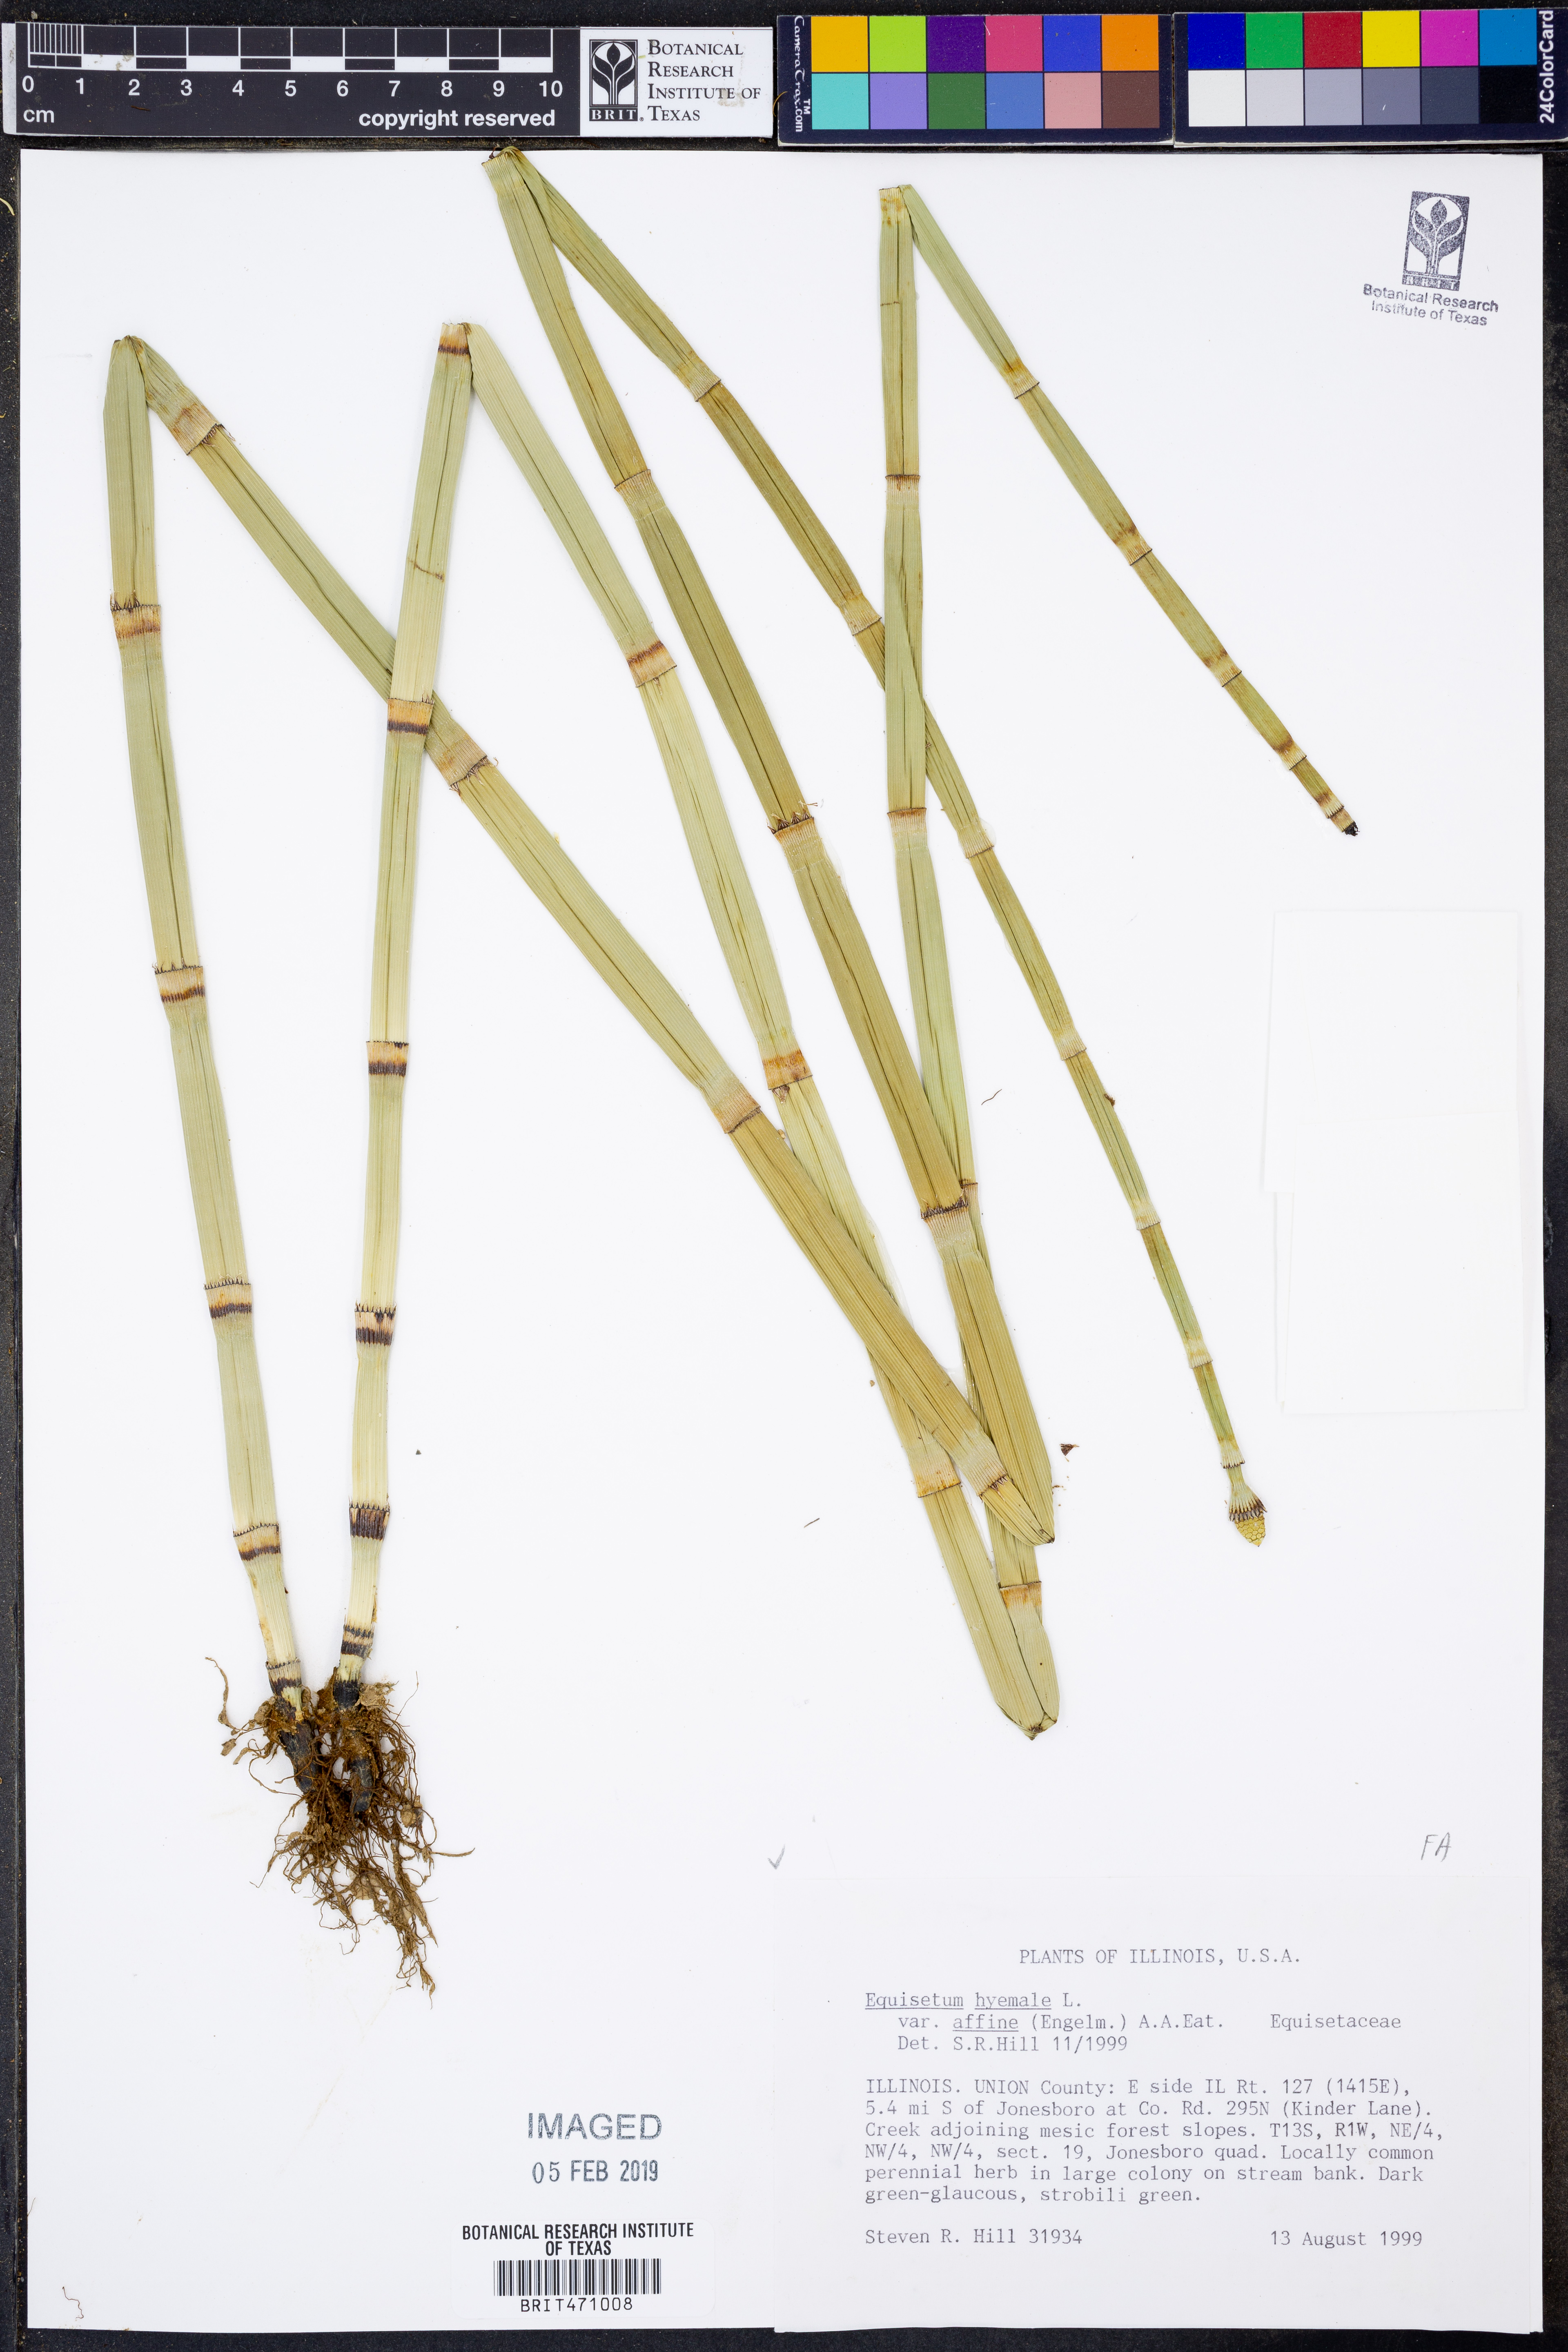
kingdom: Plantae
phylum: Tracheophyta
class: Polypodiopsida
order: Equisetales
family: Equisetaceae
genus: Equisetum
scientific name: Equisetum praealtum
